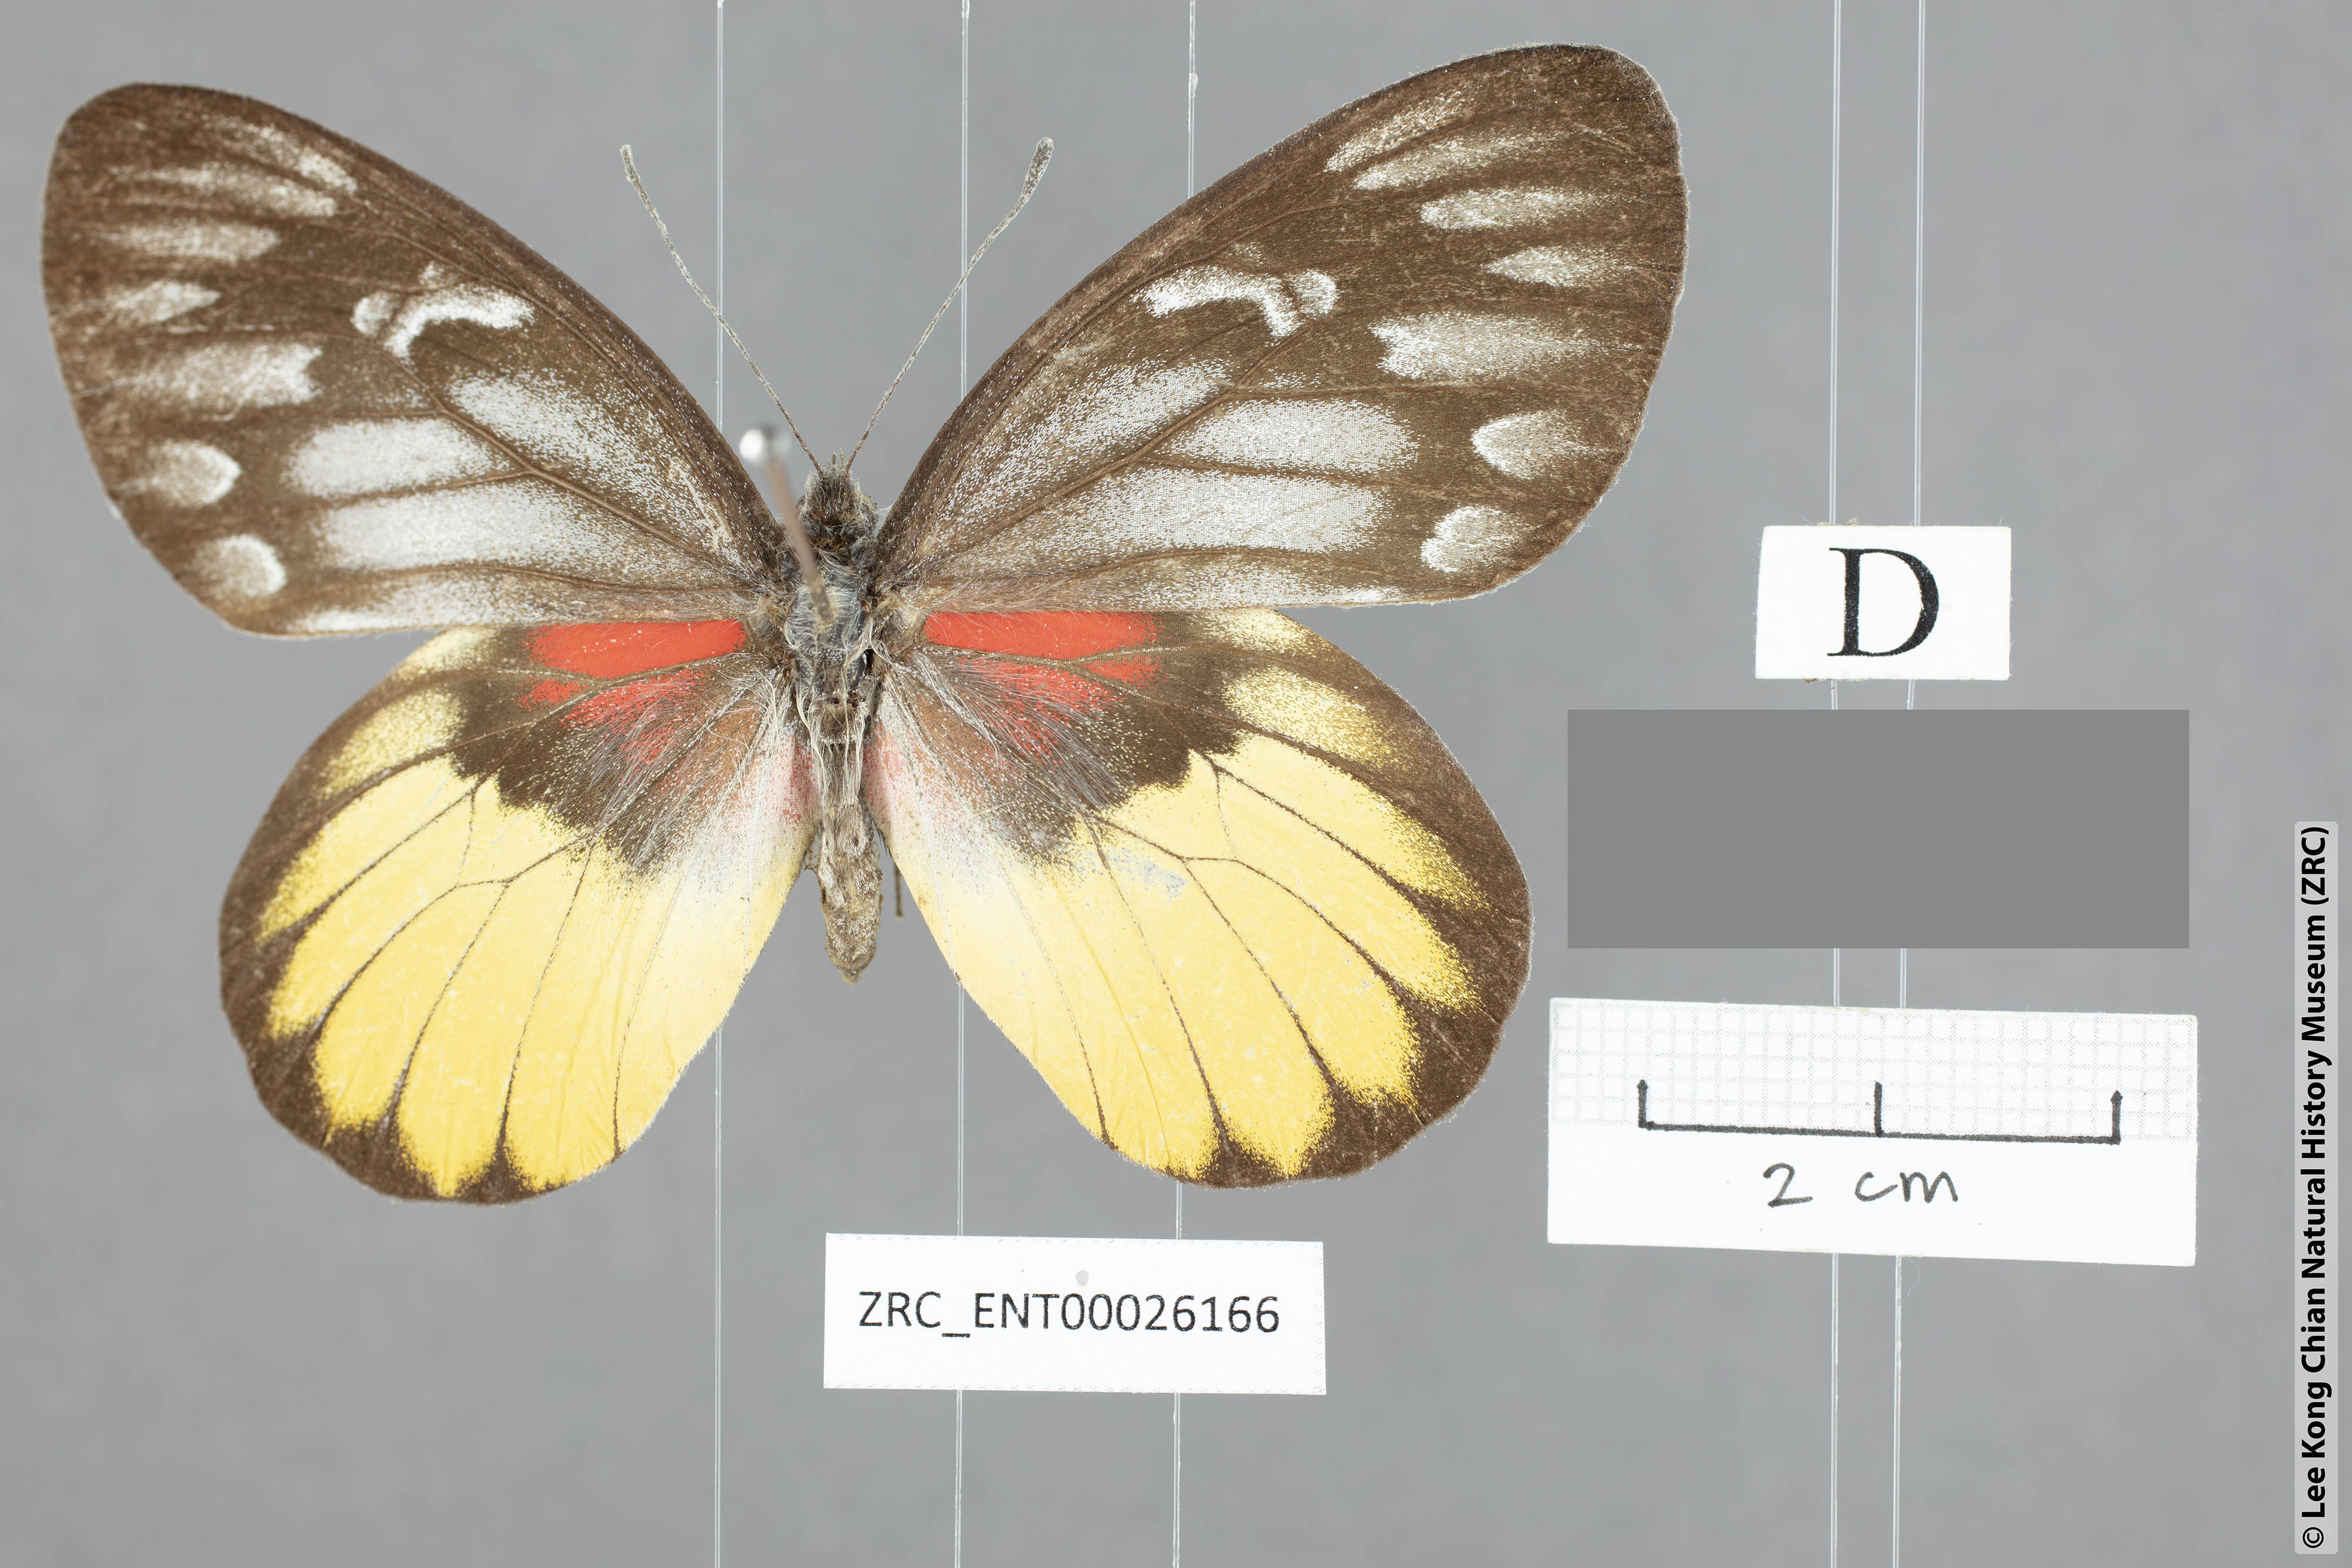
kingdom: Animalia
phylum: Arthropoda
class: Insecta
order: Lepidoptera
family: Pieridae
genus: Delias
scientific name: Delias acalis
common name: Red-breast jezebel
